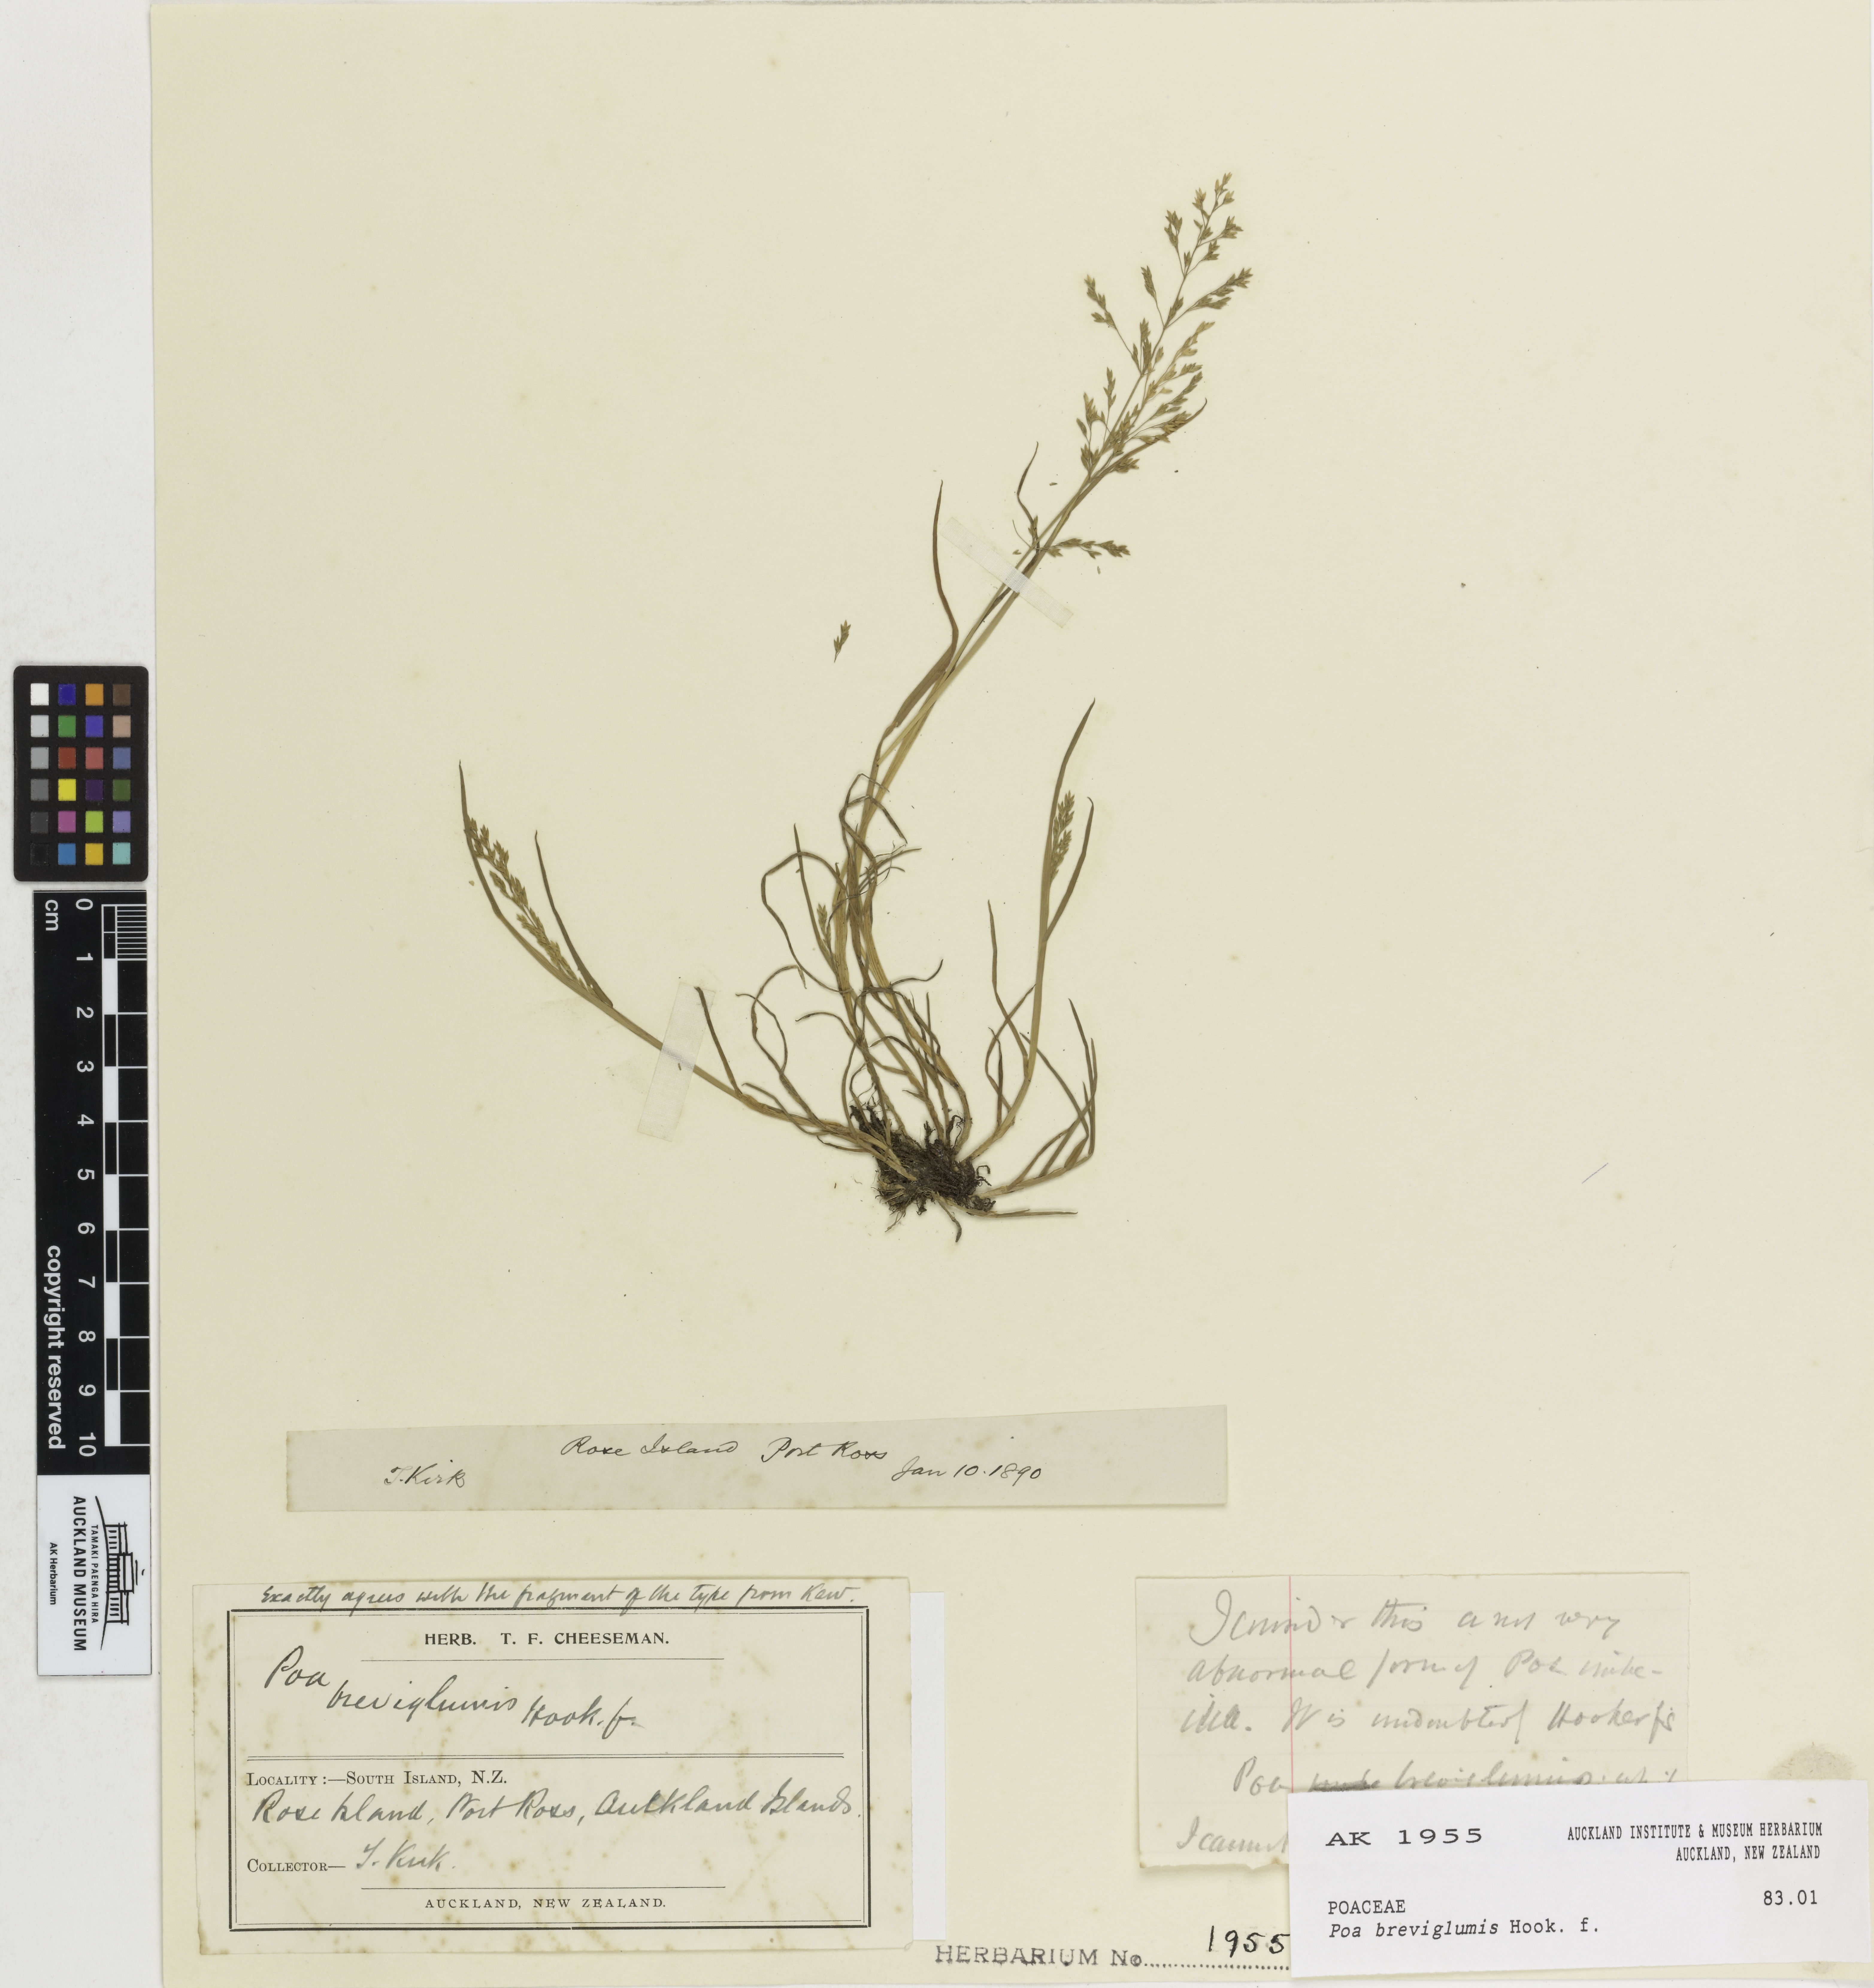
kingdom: Plantae
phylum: Tracheophyta
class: Liliopsida
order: Poales
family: Poaceae
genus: Poa
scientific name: Poa breviglumis
